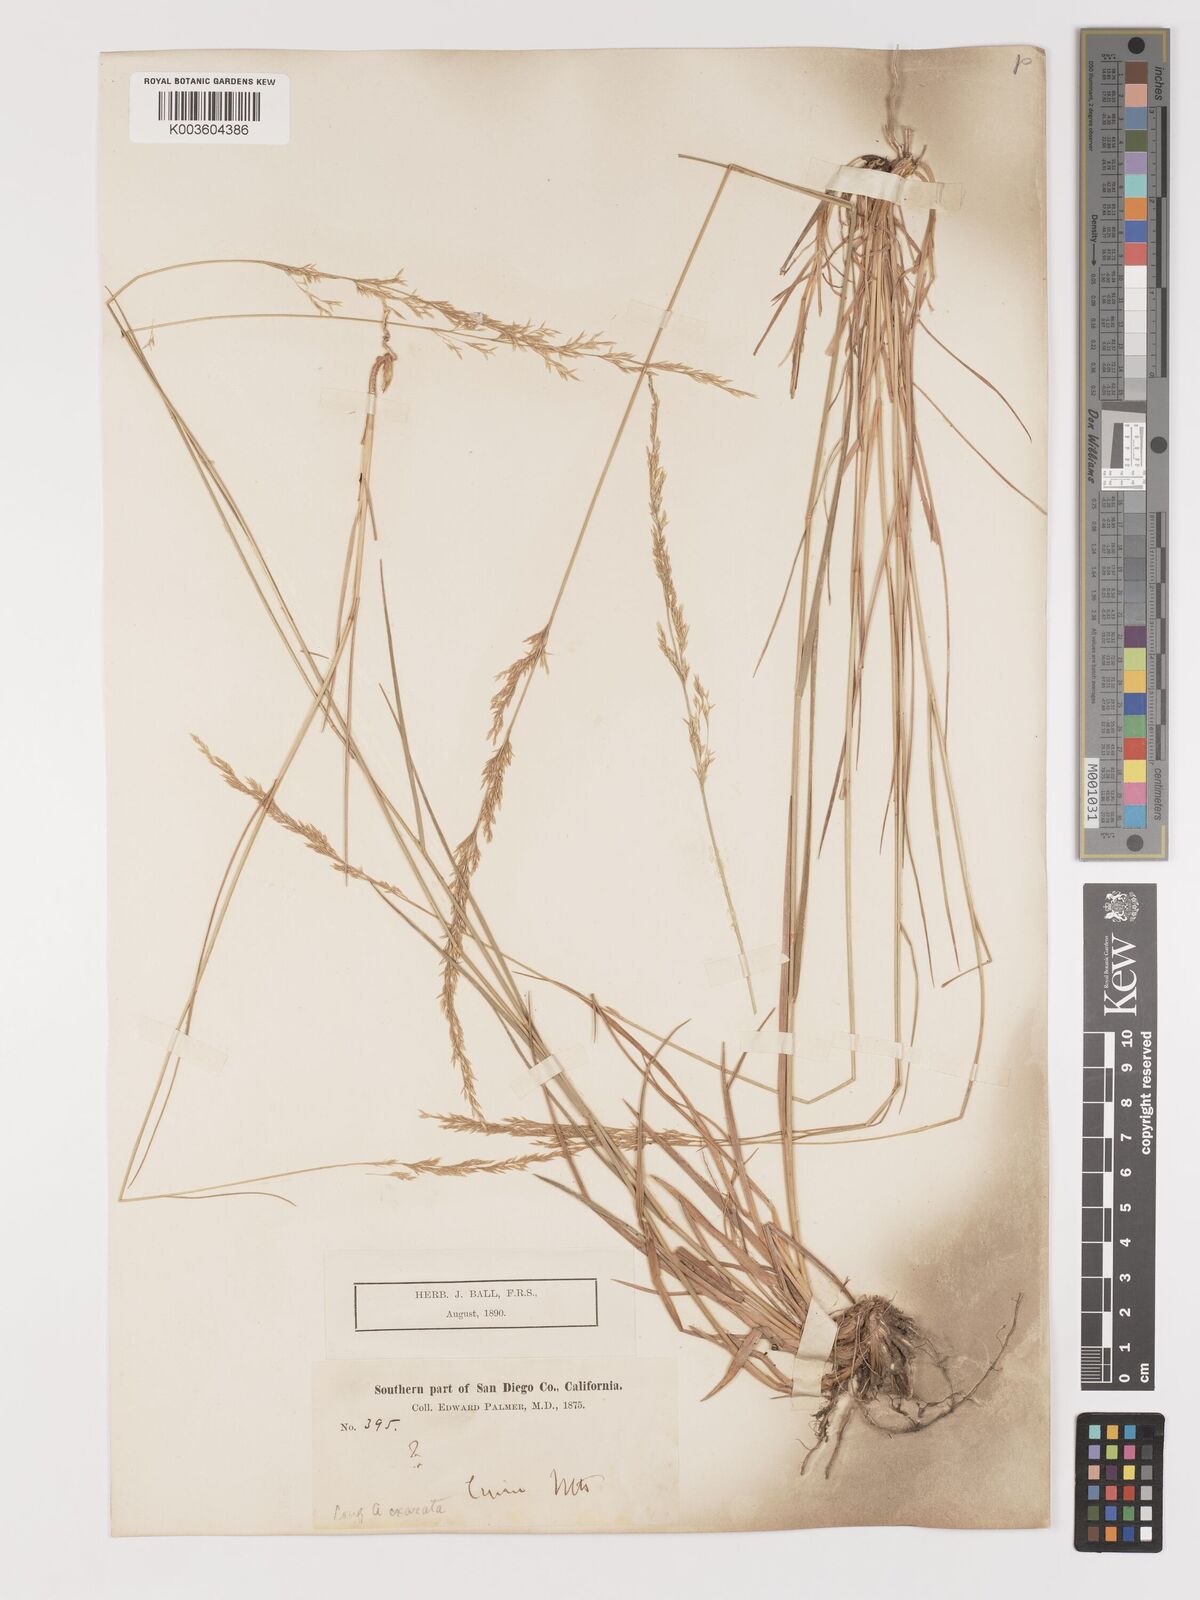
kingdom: Plantae
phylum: Tracheophyta
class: Liliopsida
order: Poales
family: Poaceae
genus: Agrostis
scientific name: Agrostis exarata
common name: Spike bent
